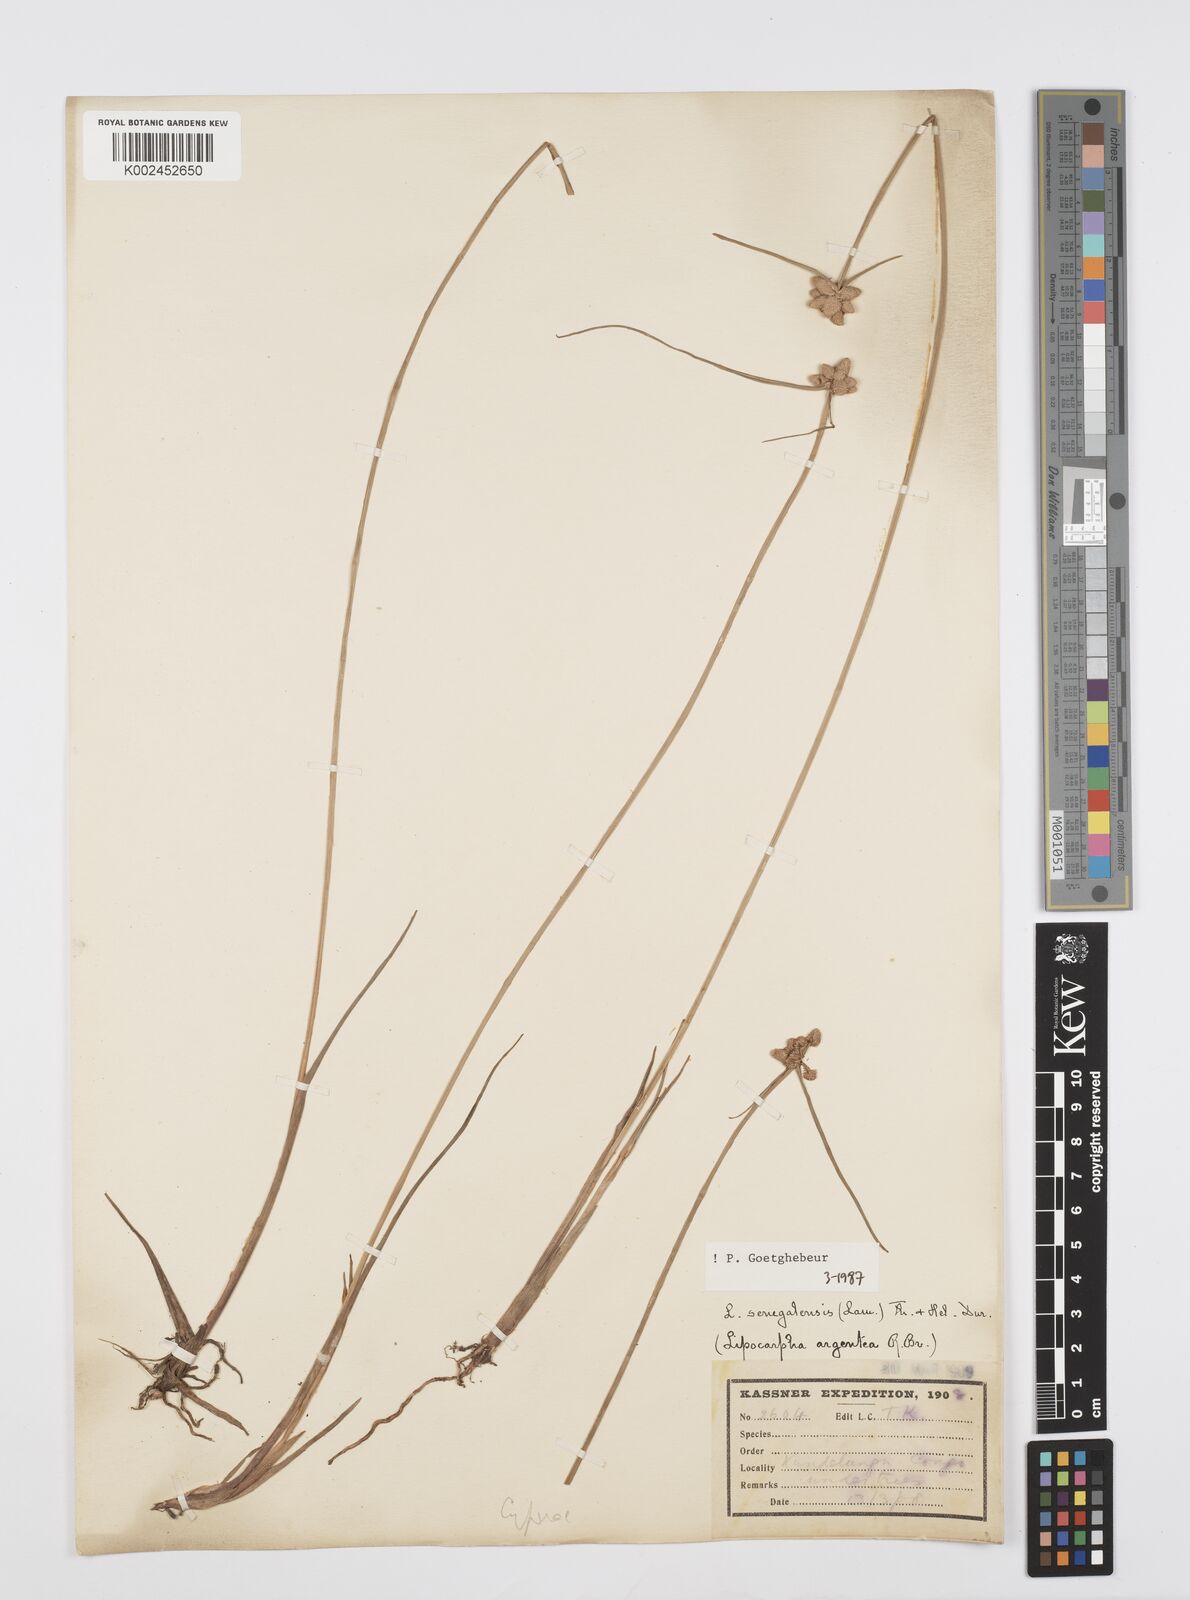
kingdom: Plantae
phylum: Tracheophyta
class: Liliopsida
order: Poales
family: Cyperaceae
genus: Cyperus
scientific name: Cyperus albescens
